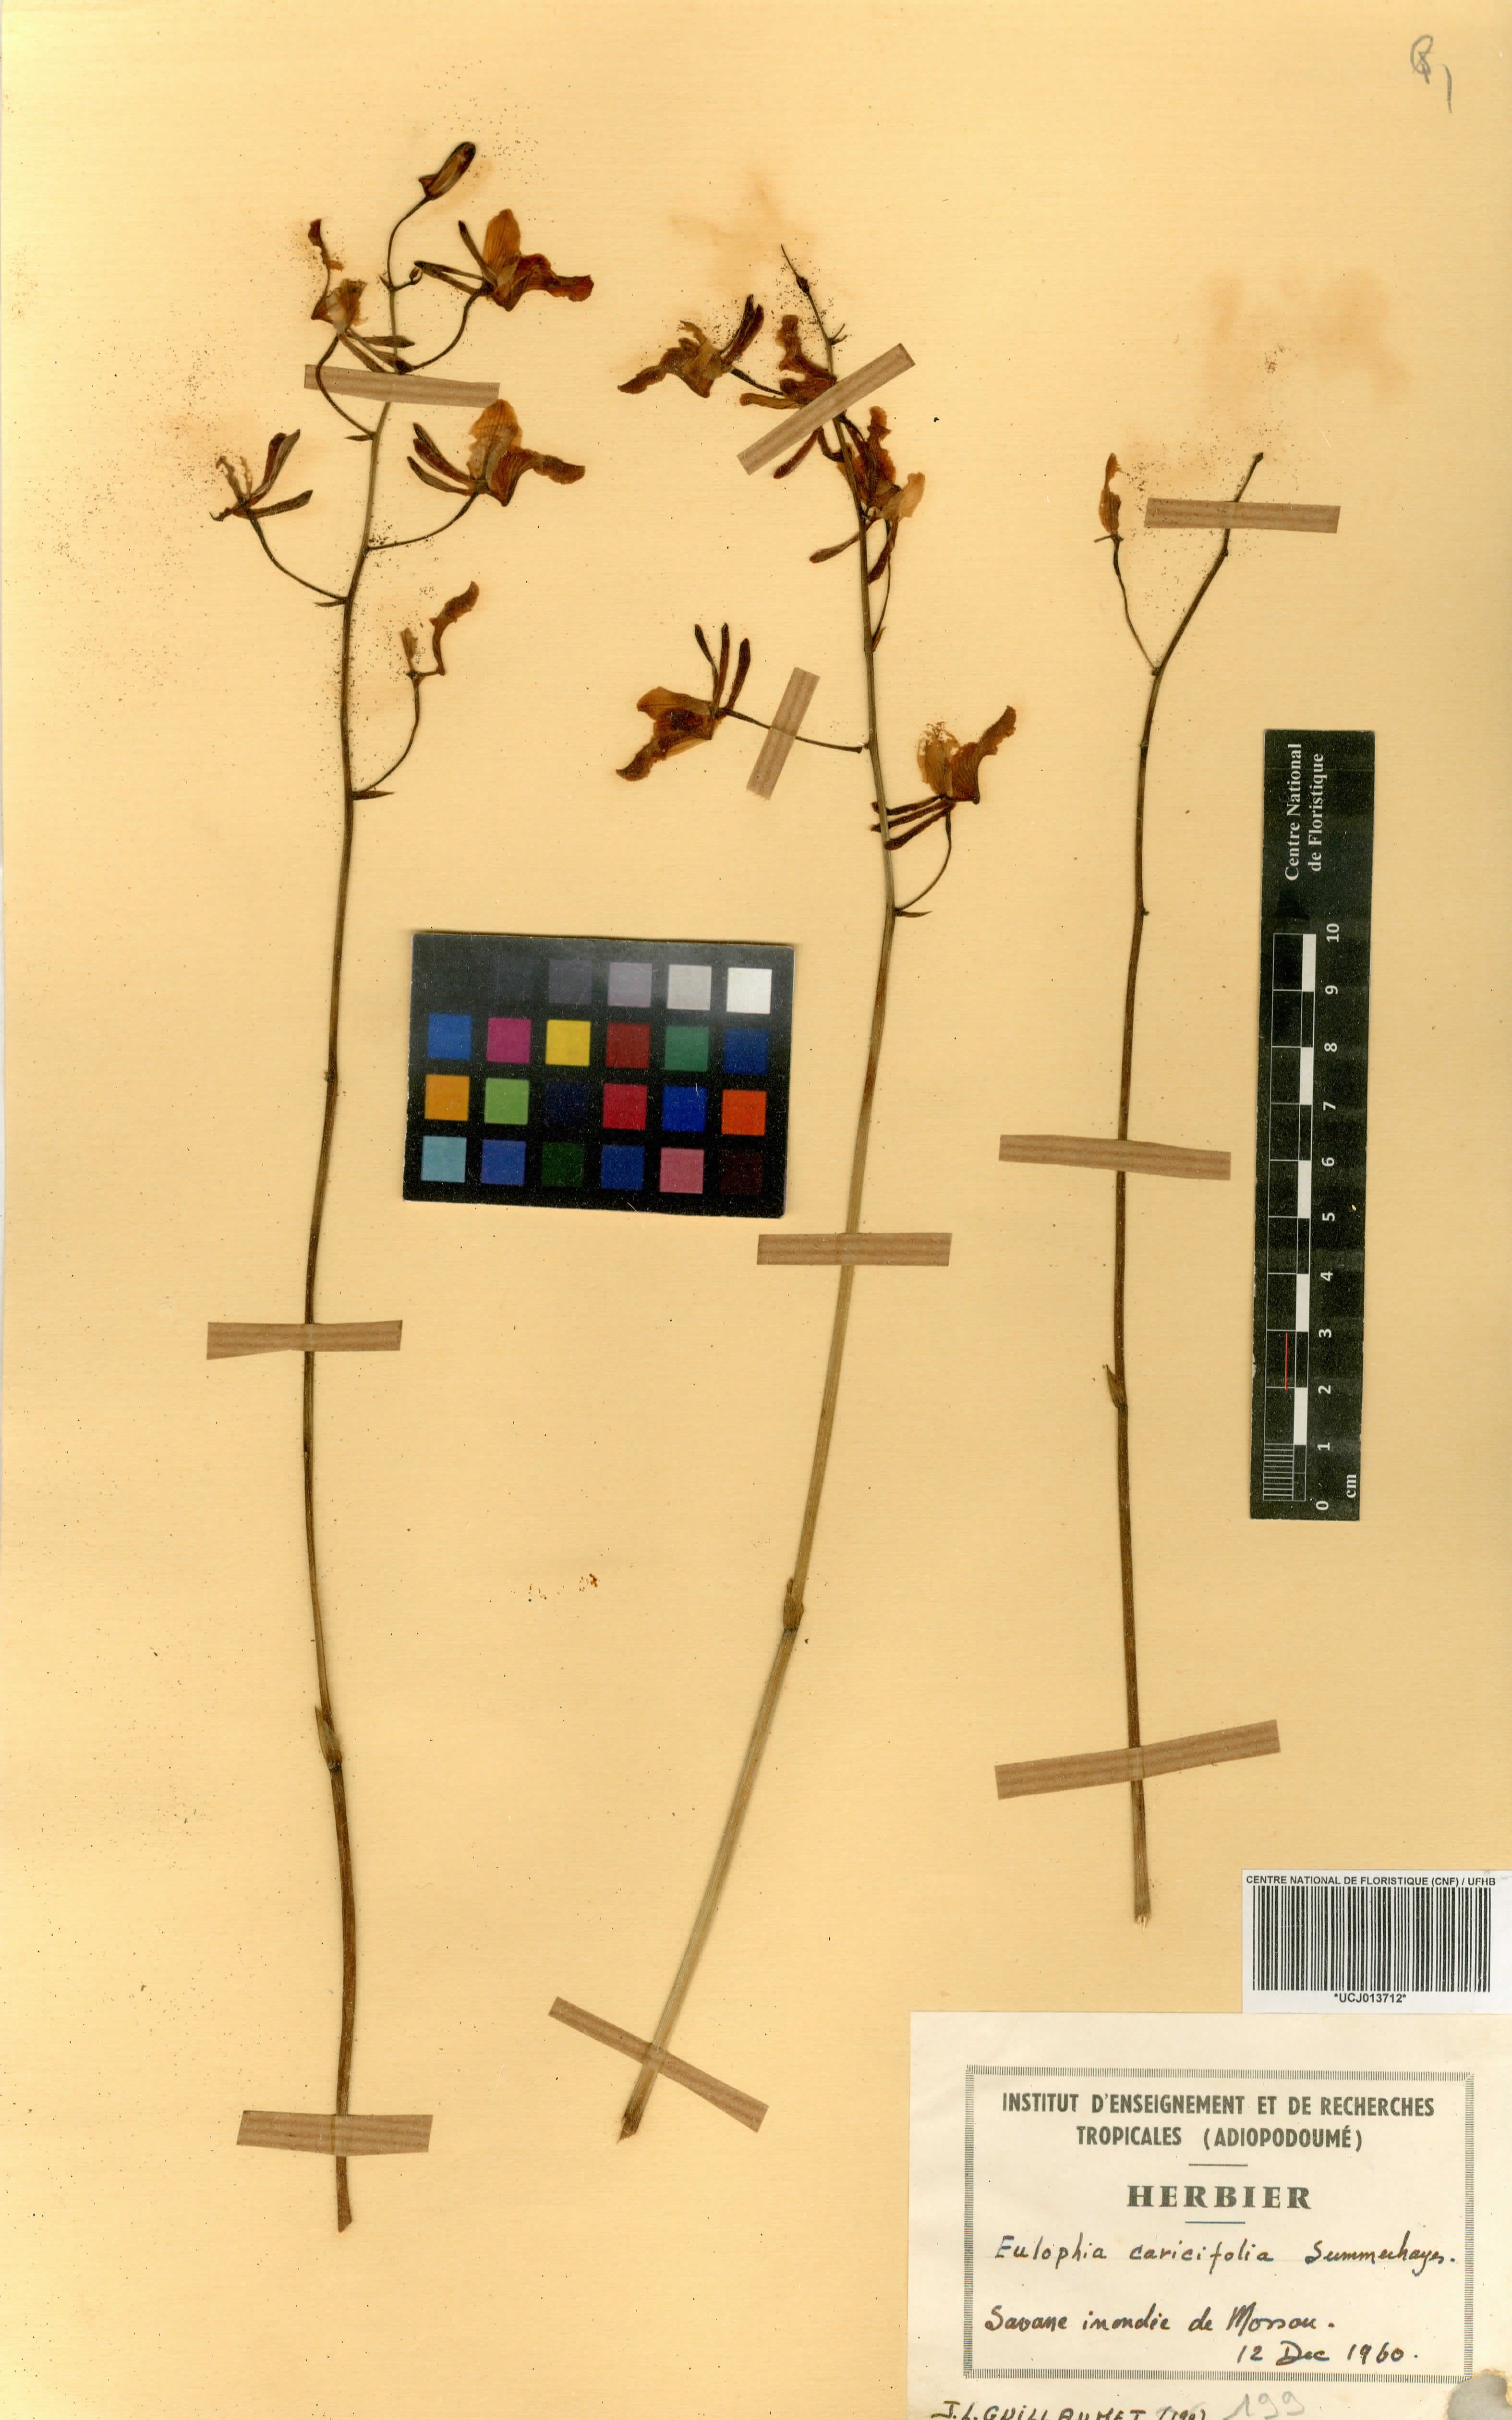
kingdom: Plantae
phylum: Tracheophyta
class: Liliopsida
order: Asparagales
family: Orchidaceae
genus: Eulophia
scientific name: Eulophia caricifolia
